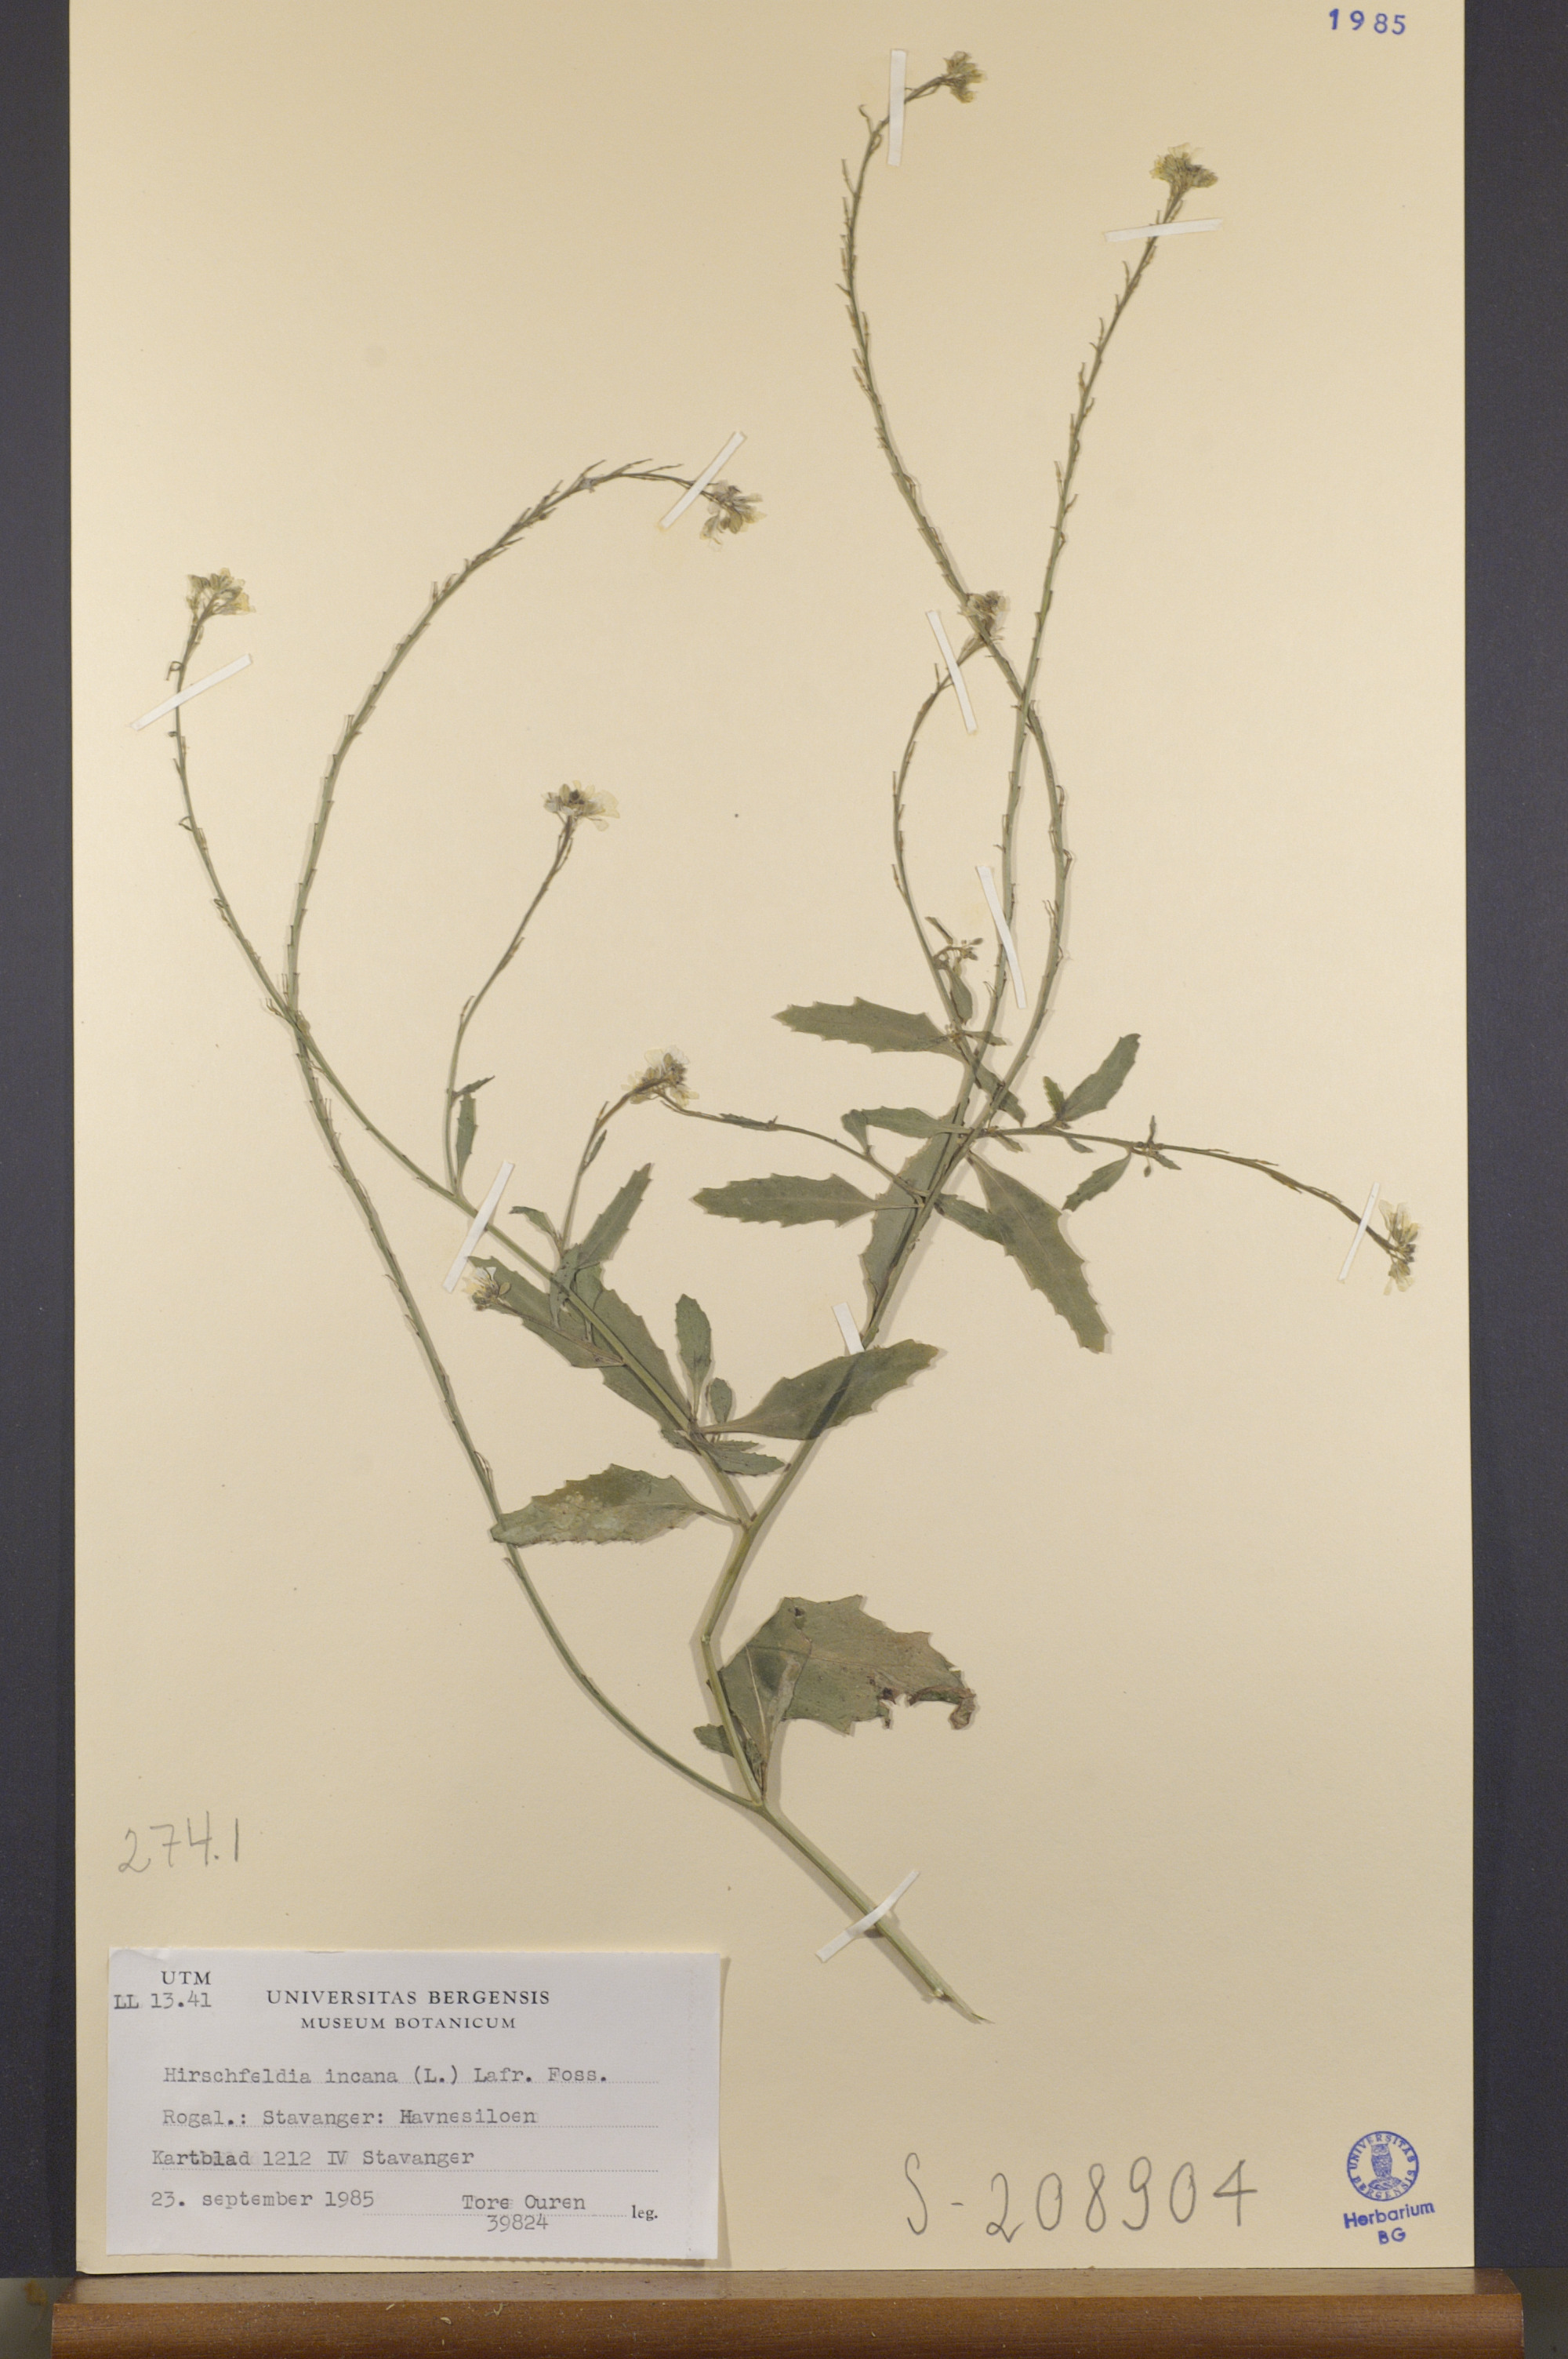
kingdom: Plantae
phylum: Tracheophyta
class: Magnoliopsida
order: Brassicales
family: Brassicaceae
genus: Hirschfeldia
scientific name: Hirschfeldia incana
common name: Hoary mustard
